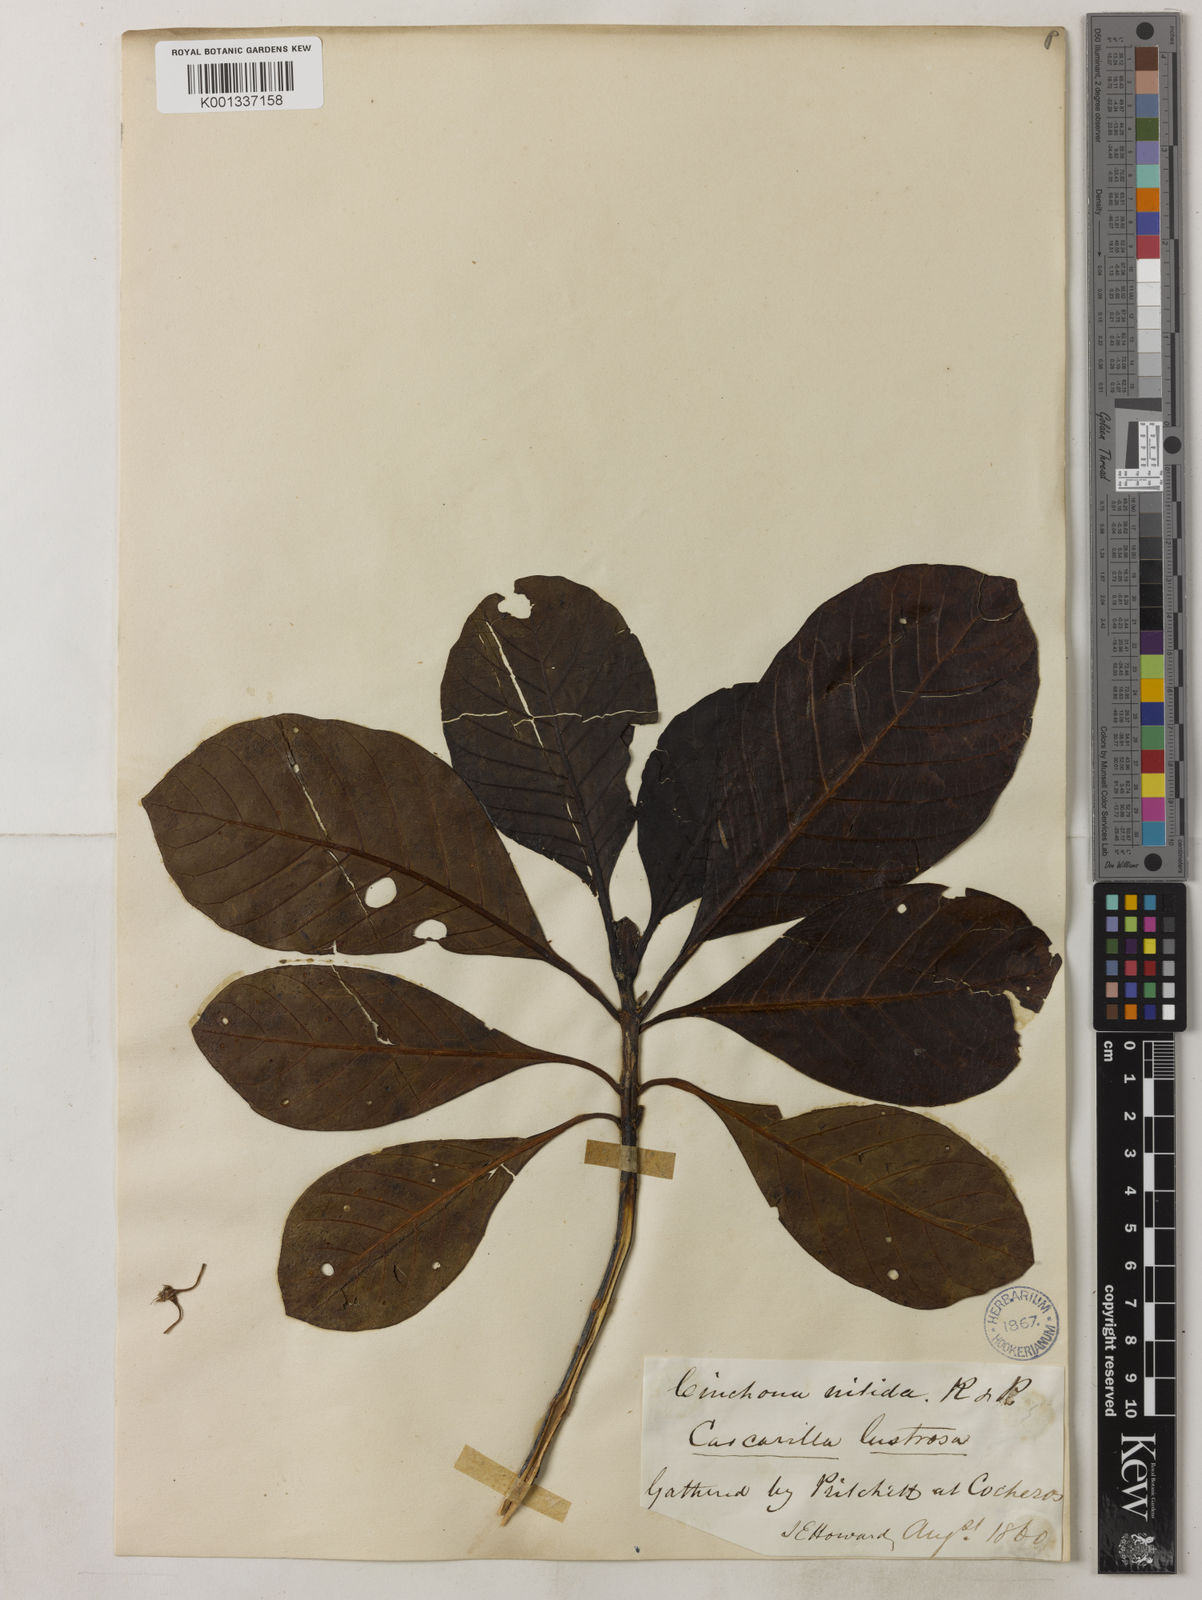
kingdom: Plantae
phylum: Tracheophyta
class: Magnoliopsida
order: Gentianales
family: Rubiaceae
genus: Cinchona
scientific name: Cinchona nitida
